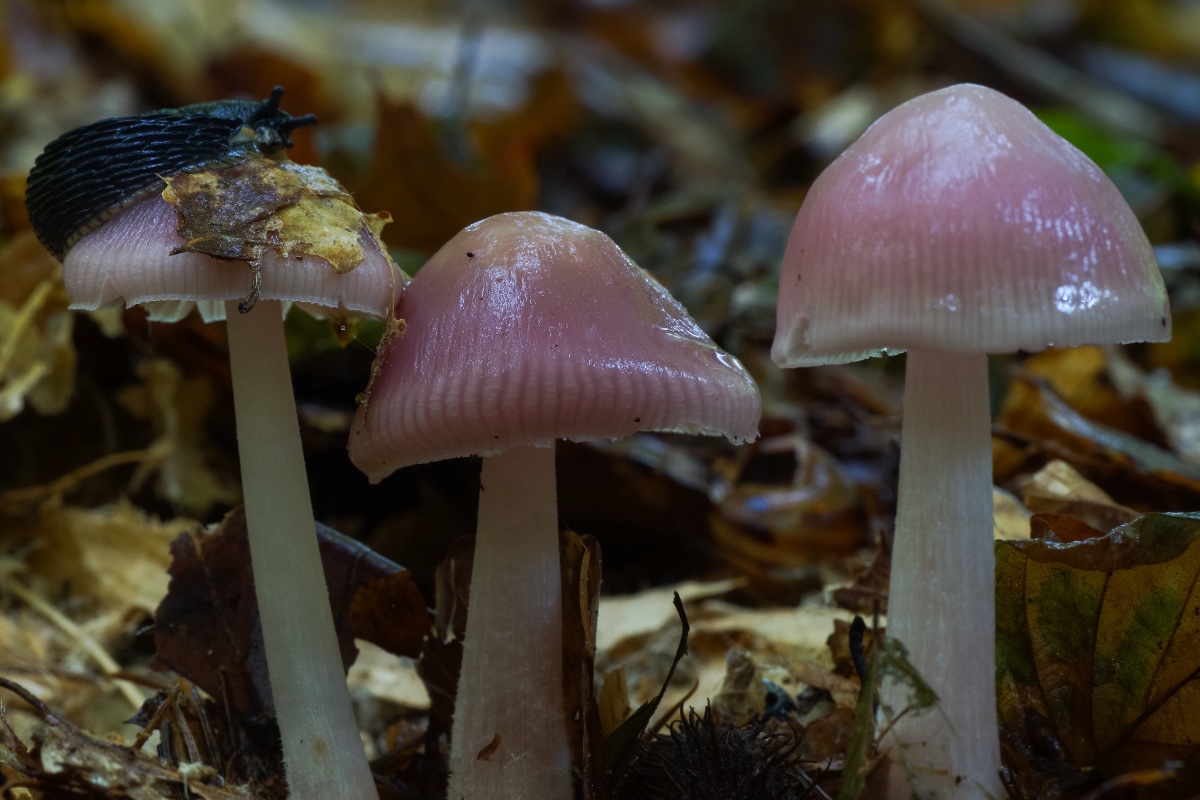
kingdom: Fungi
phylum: Basidiomycota
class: Agaricomycetes
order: Agaricales
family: Mycenaceae
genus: Mycena
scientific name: Mycena rosea
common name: rosa huesvamp
